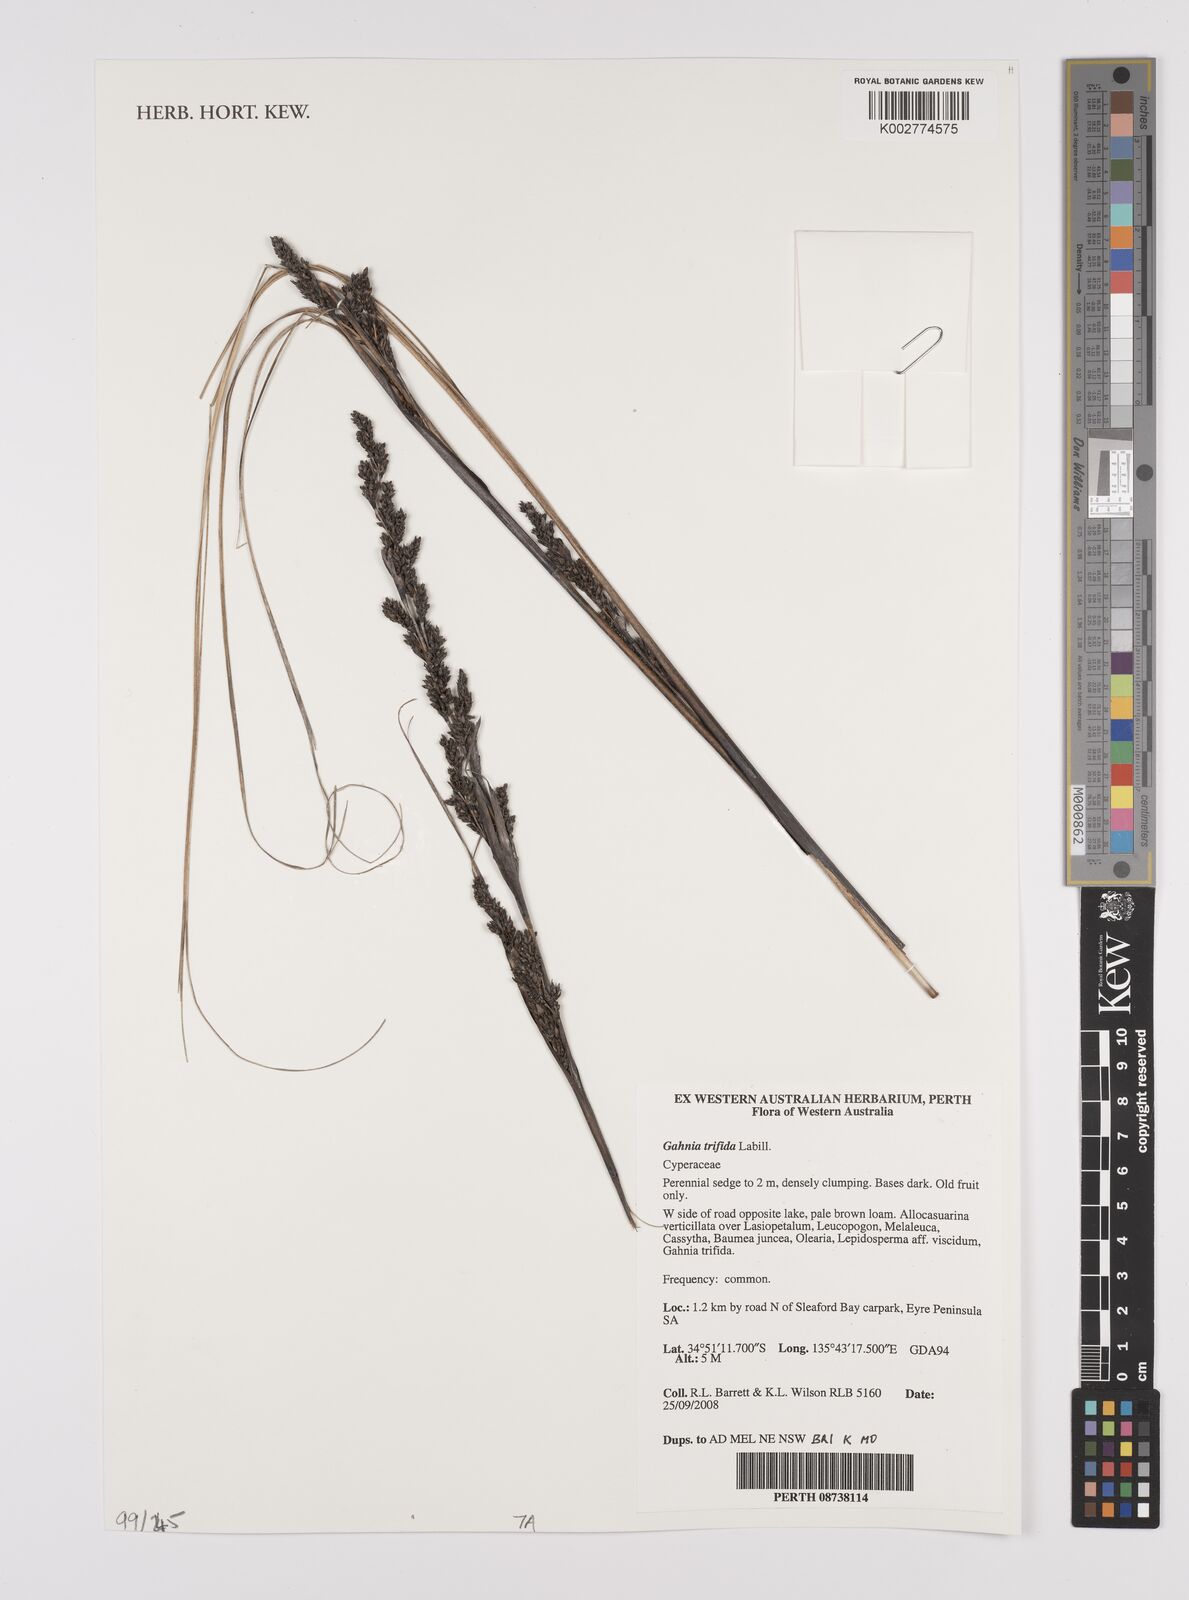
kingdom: Plantae
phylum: Tracheophyta
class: Liliopsida
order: Poales
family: Cyperaceae
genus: Gahnia
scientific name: Gahnia trifida
